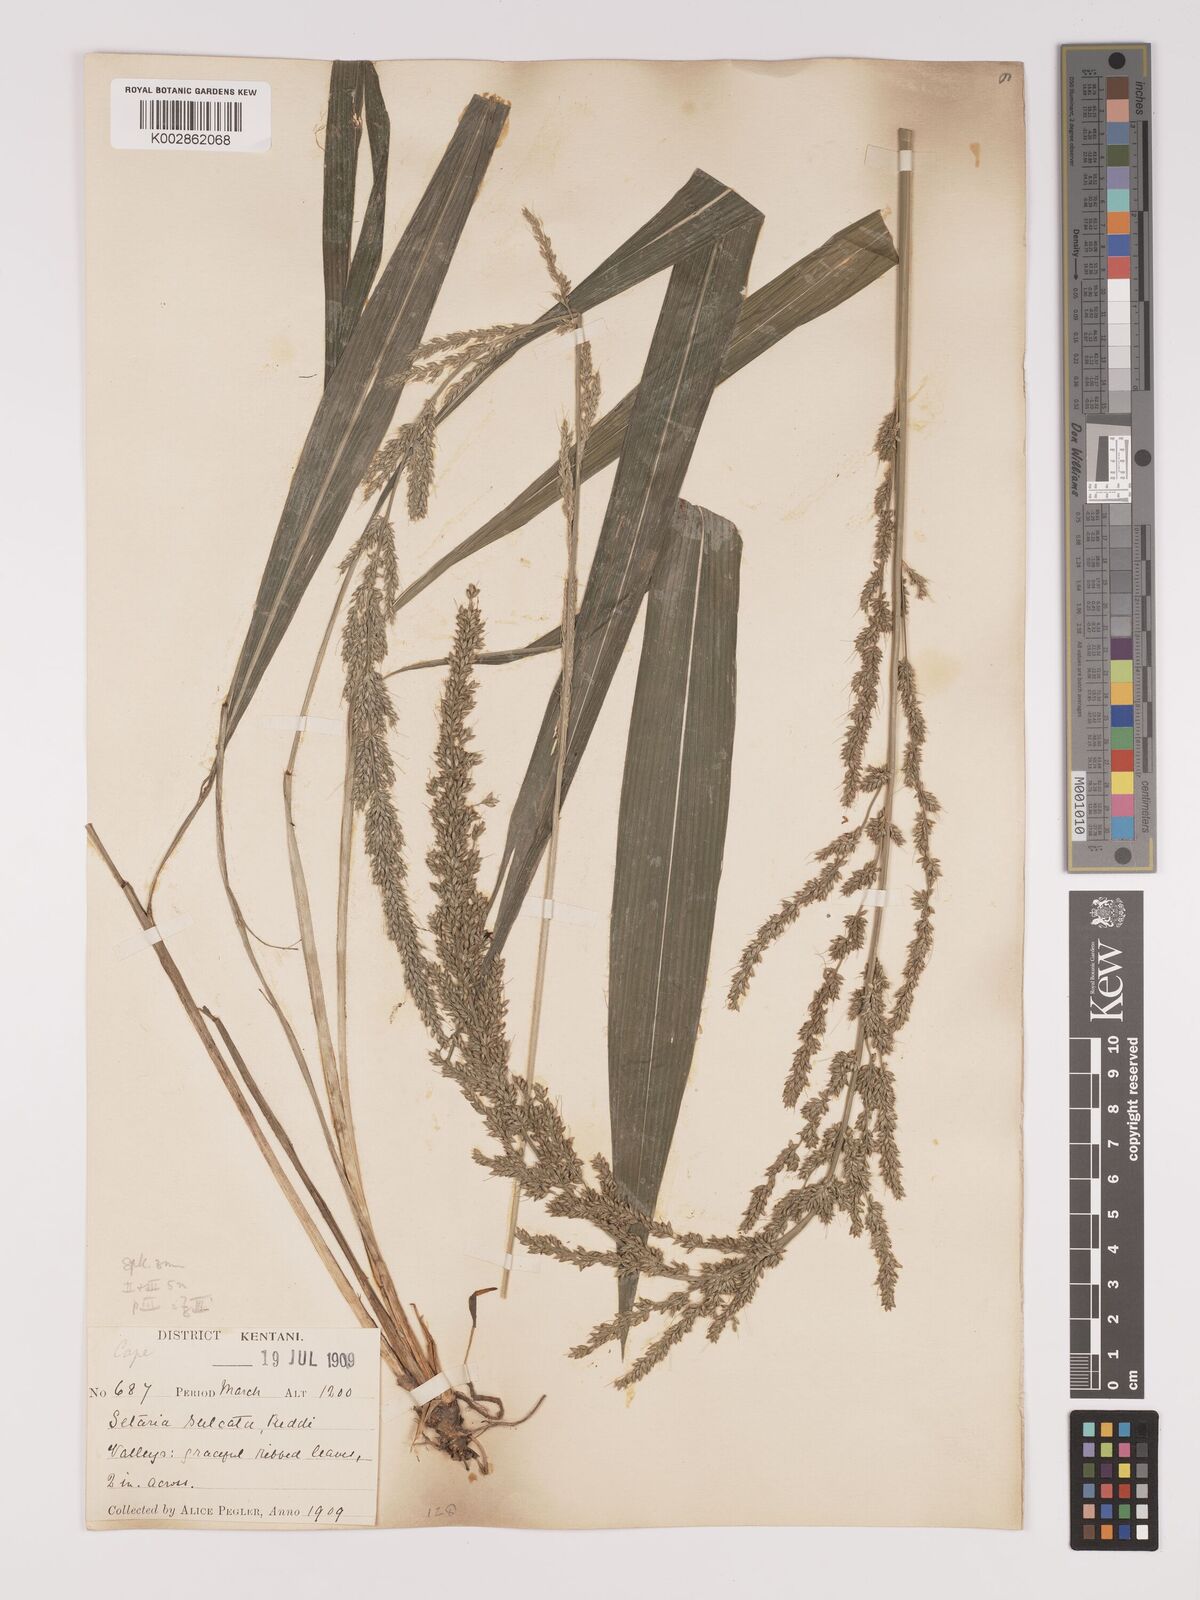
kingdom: Plantae
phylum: Tracheophyta
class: Liliopsida
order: Poales
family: Poaceae
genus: Setaria
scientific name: Setaria megaphylla
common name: Bigleaf bristlegrass
